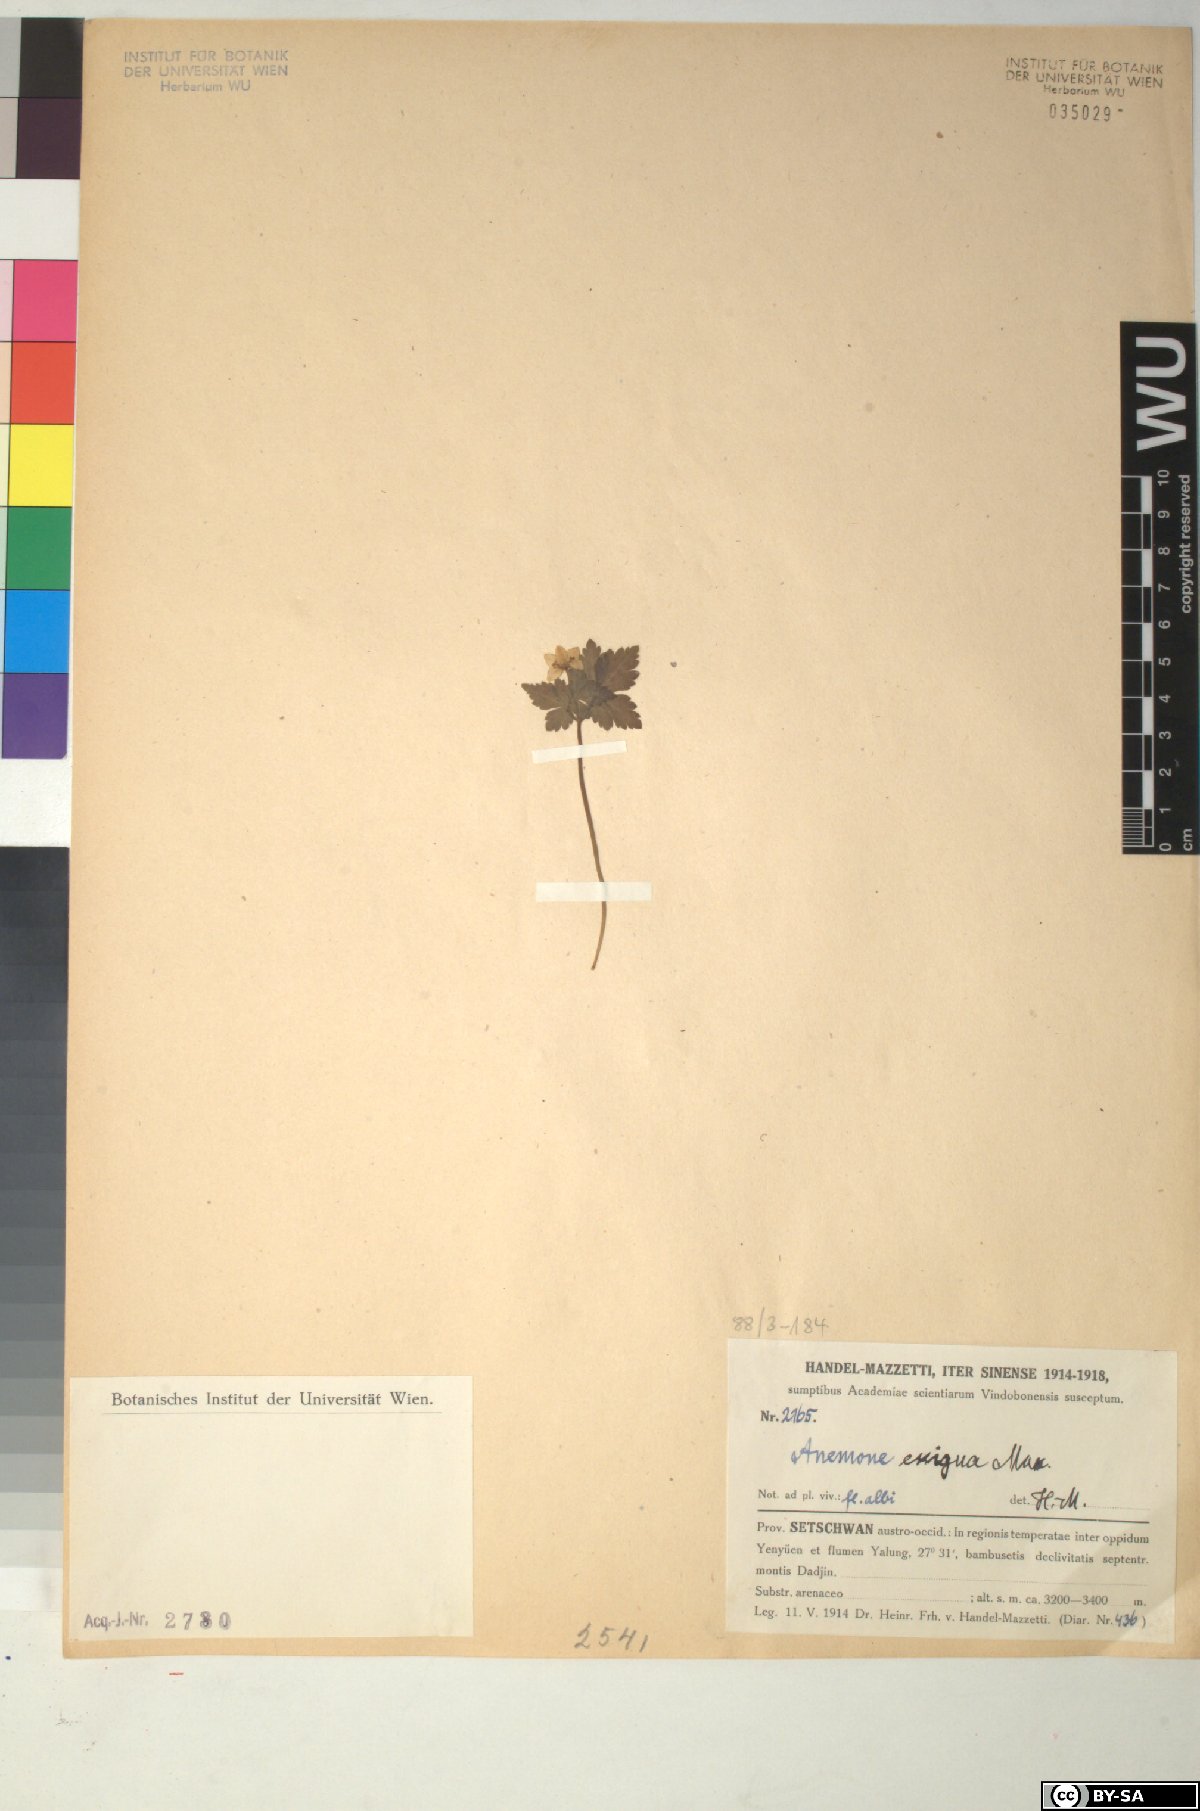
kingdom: Plantae
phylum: Tracheophyta
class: Magnoliopsida
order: Ranunculales
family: Ranunculaceae
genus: Anemone
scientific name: Anemone exigua
